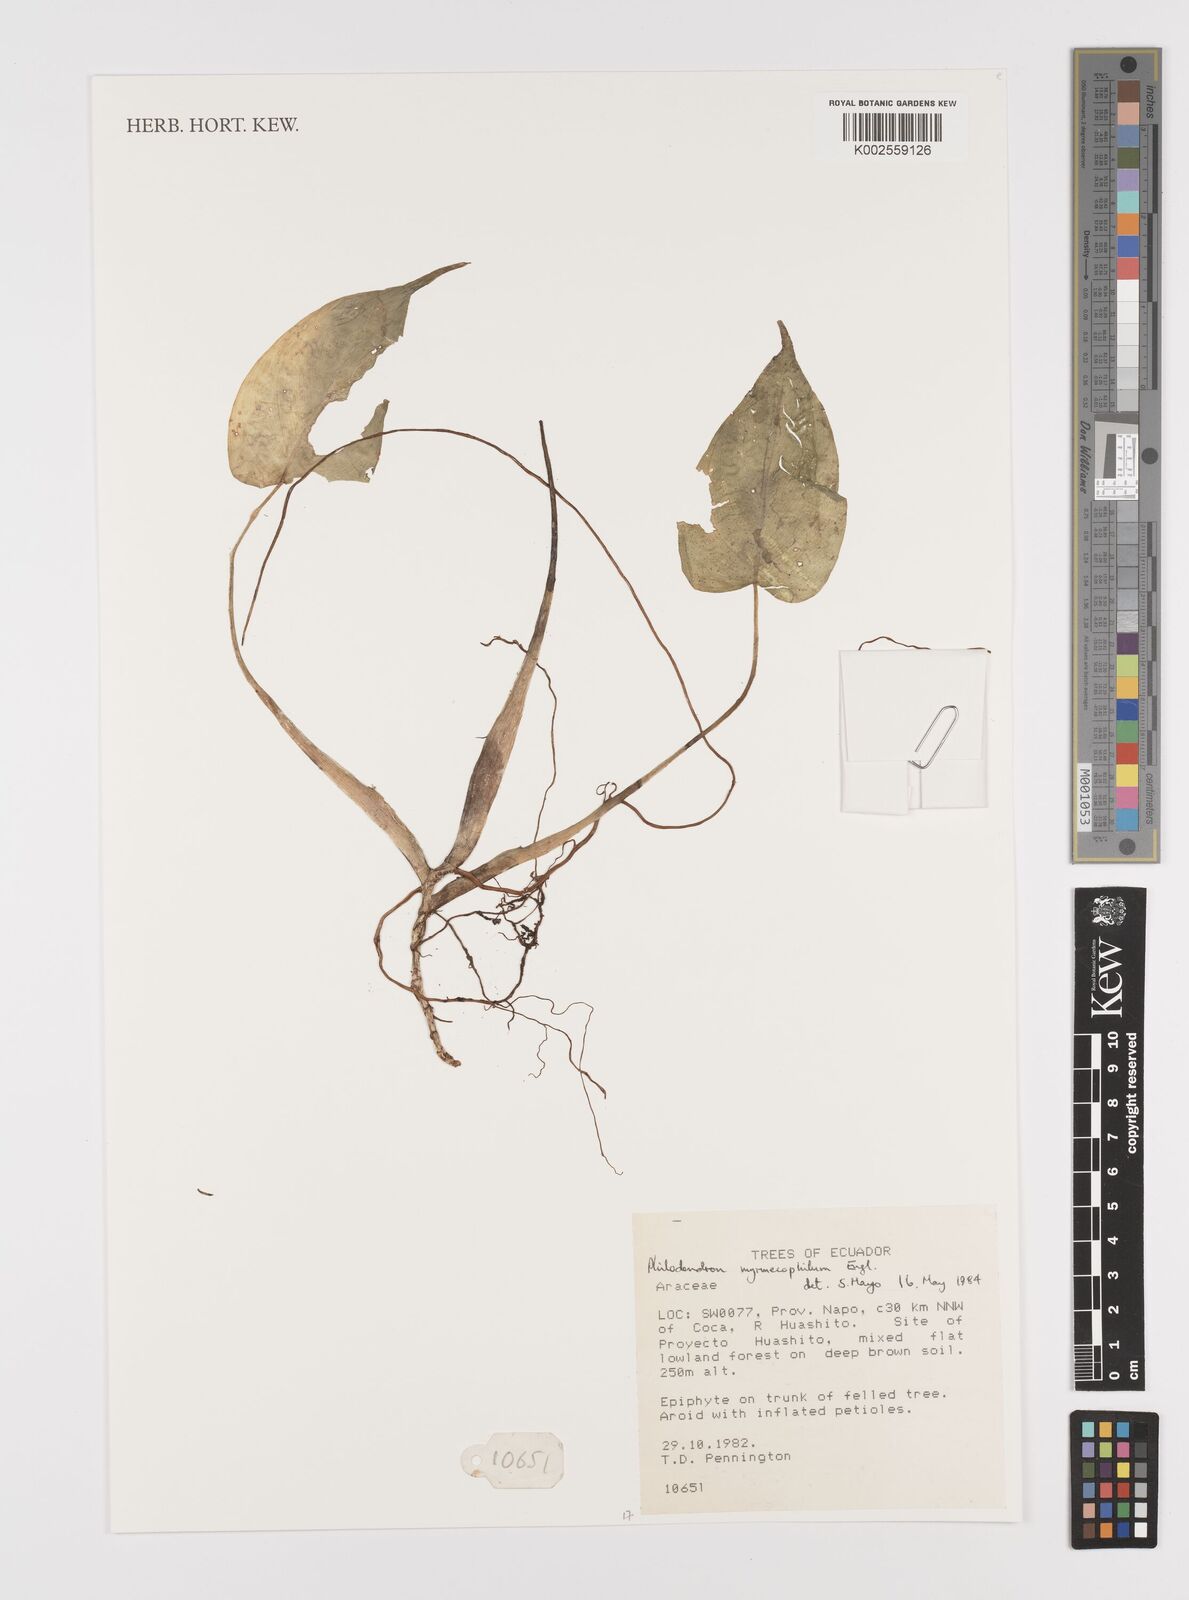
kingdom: Plantae
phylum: Tracheophyta
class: Liliopsida
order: Alismatales
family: Araceae
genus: Philodendron
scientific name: Philodendron myrmecophilum
